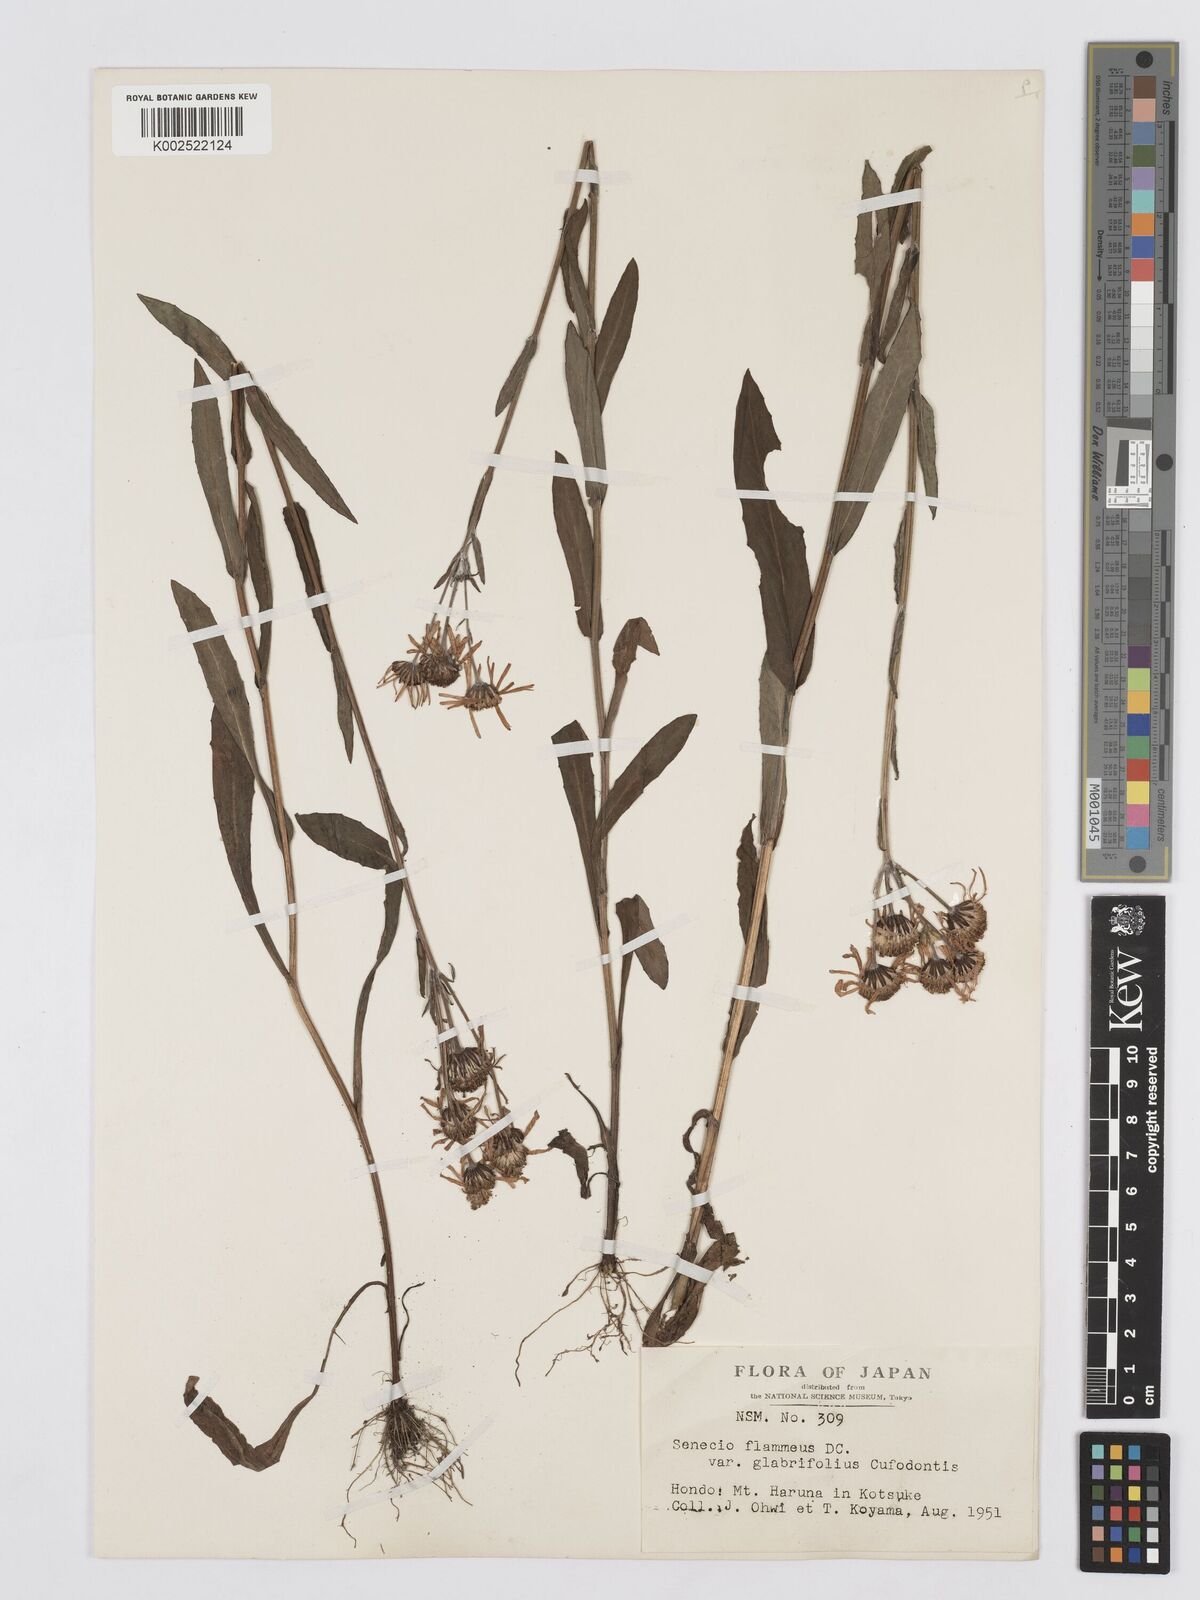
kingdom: Plantae
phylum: Tracheophyta
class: Magnoliopsida
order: Asterales
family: Asteraceae
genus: Tephroseris
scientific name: Tephroseris flammea
